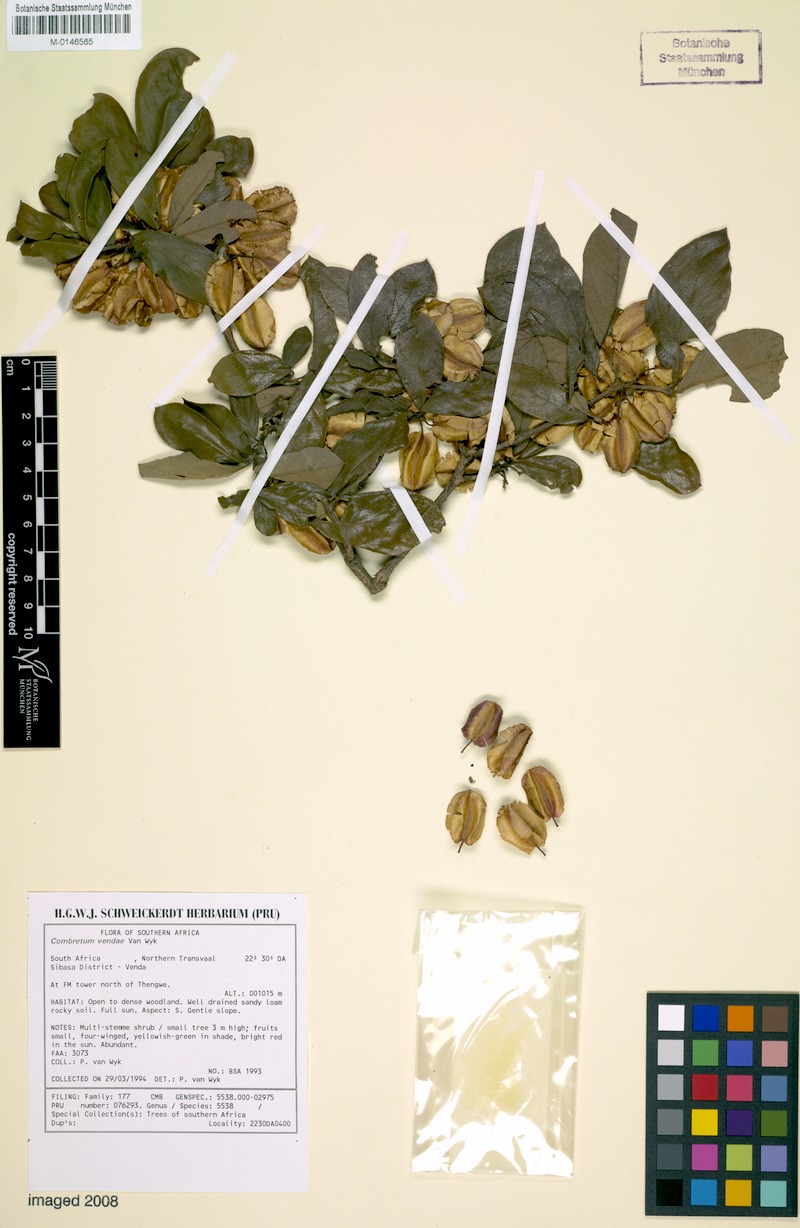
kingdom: Plantae
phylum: Tracheophyta
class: Magnoliopsida
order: Myrtales
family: Combretaceae
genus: Combretum
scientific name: Combretum vendae
